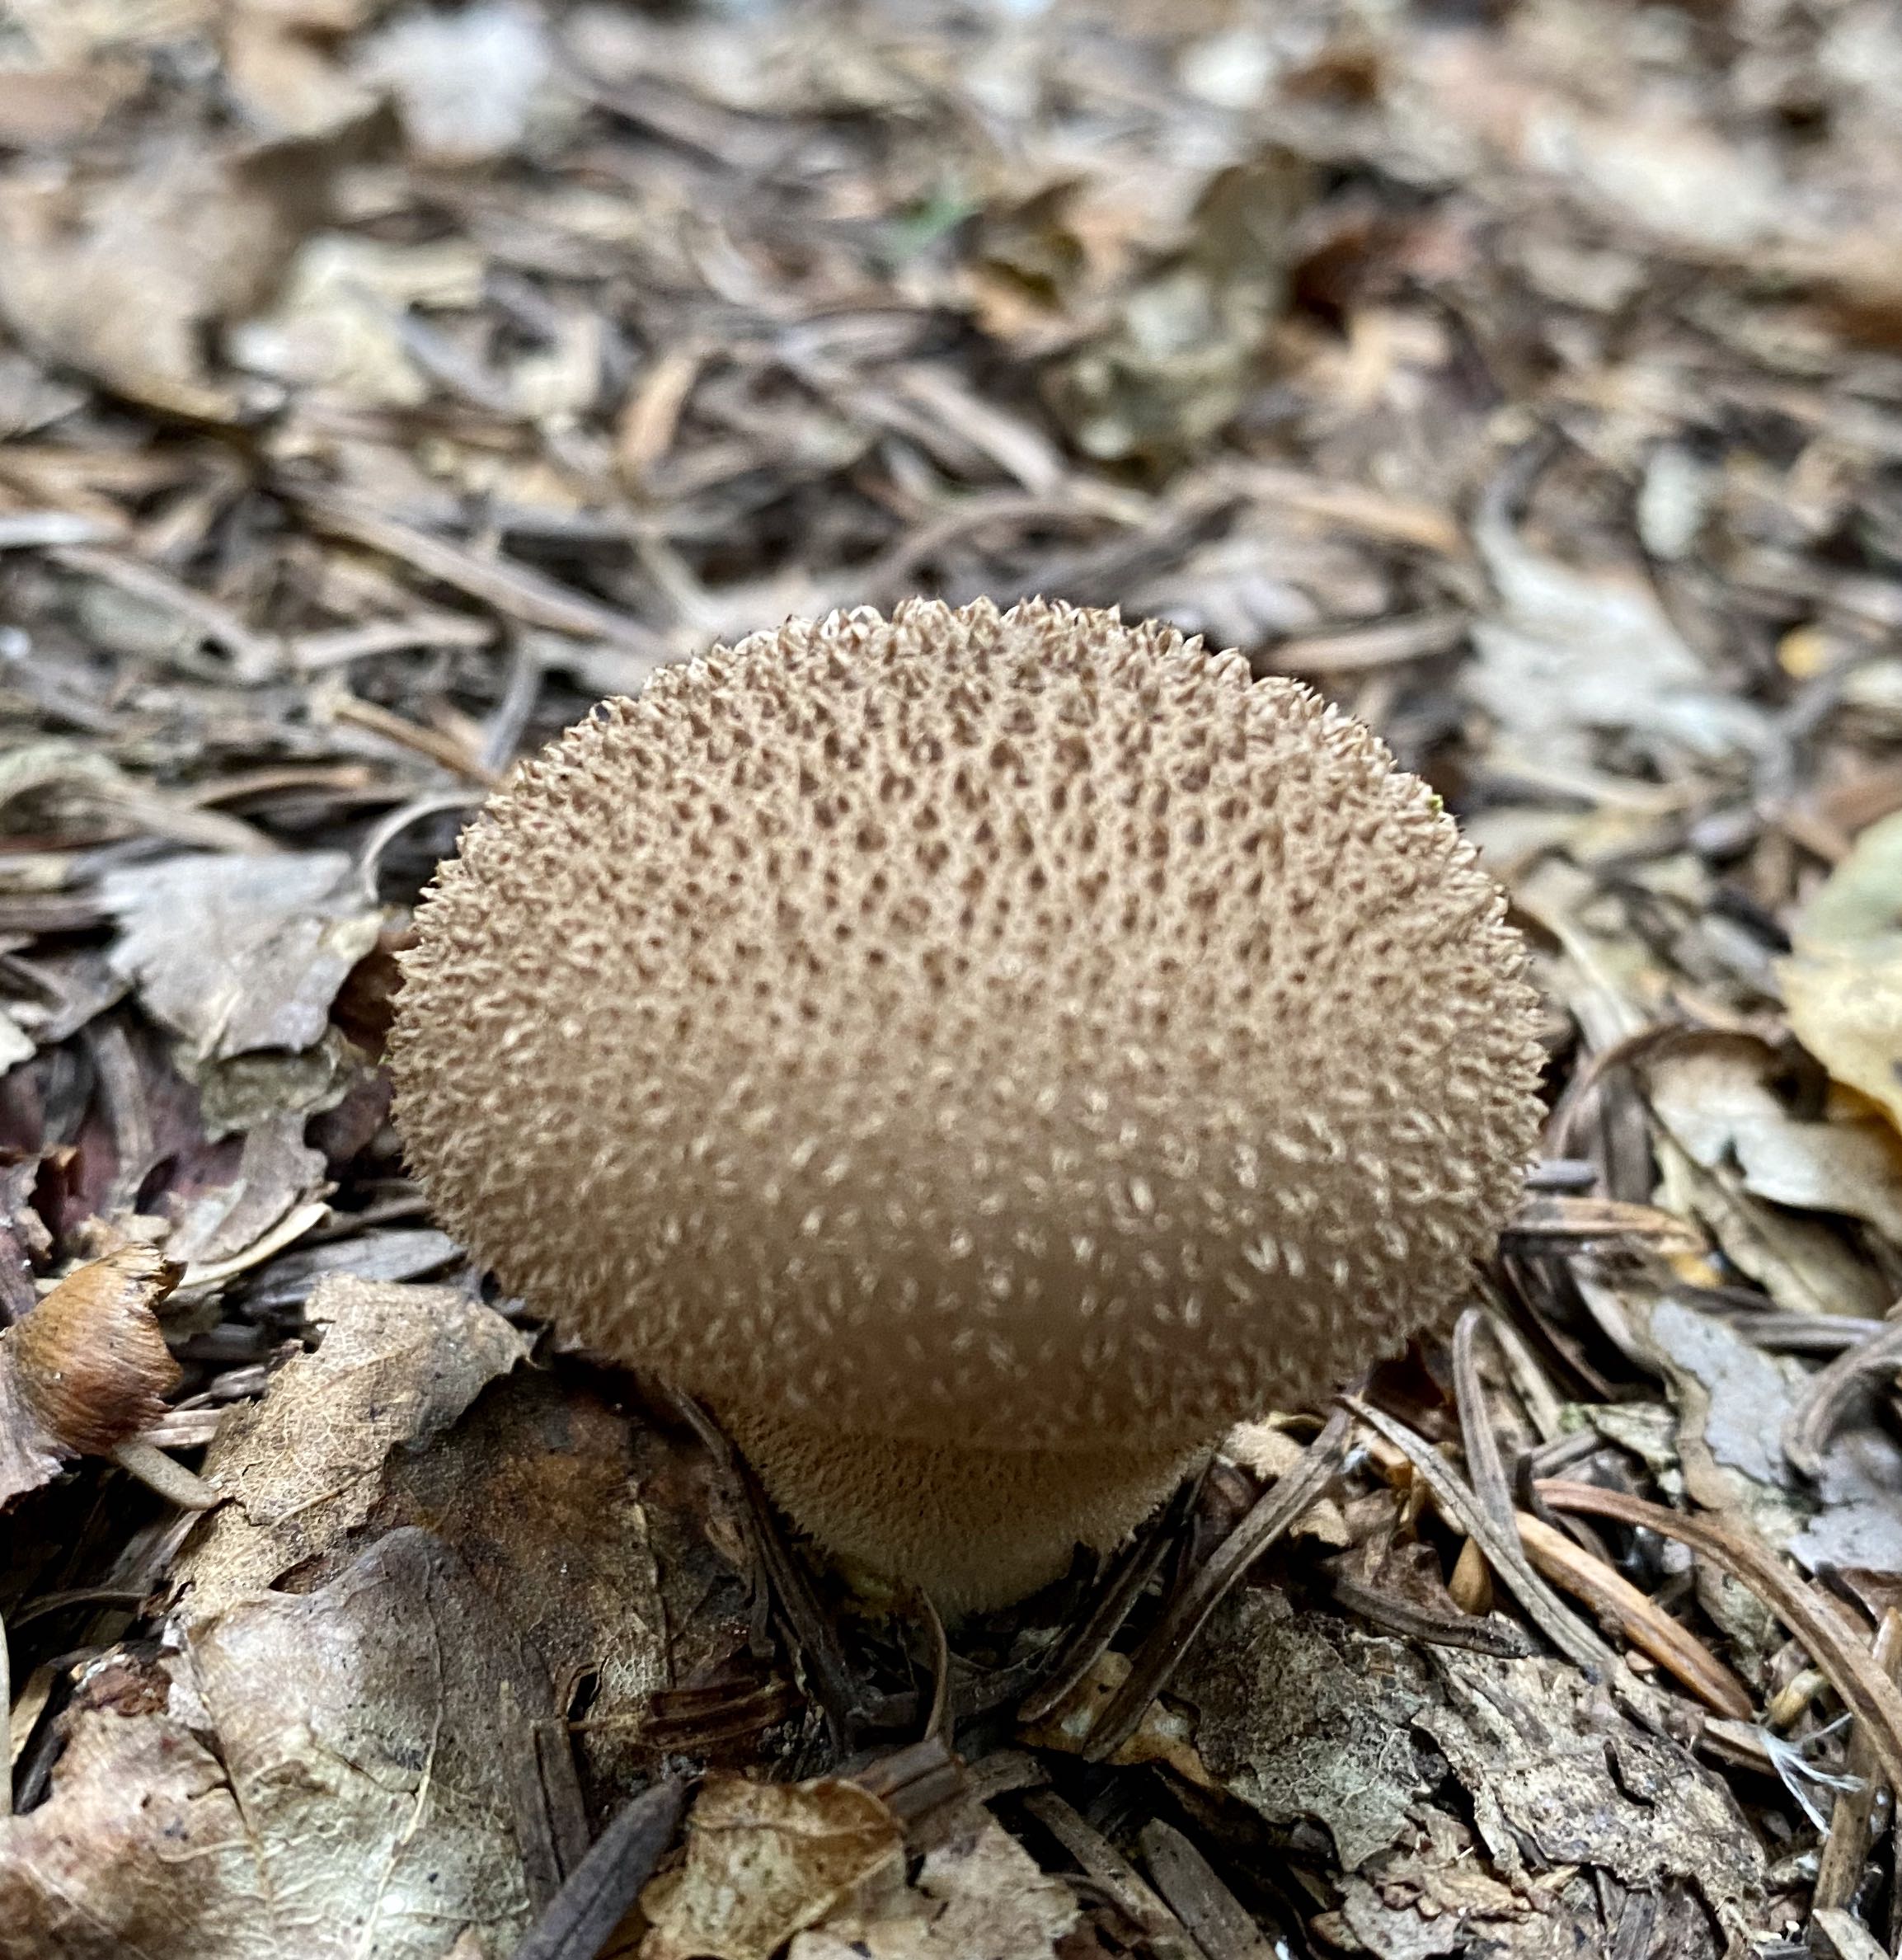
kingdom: Fungi
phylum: Basidiomycota
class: Agaricomycetes
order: Agaricales
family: Lycoperdaceae
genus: Lycoperdon
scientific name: Lycoperdon nigrescens
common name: sortagtig støvbold
